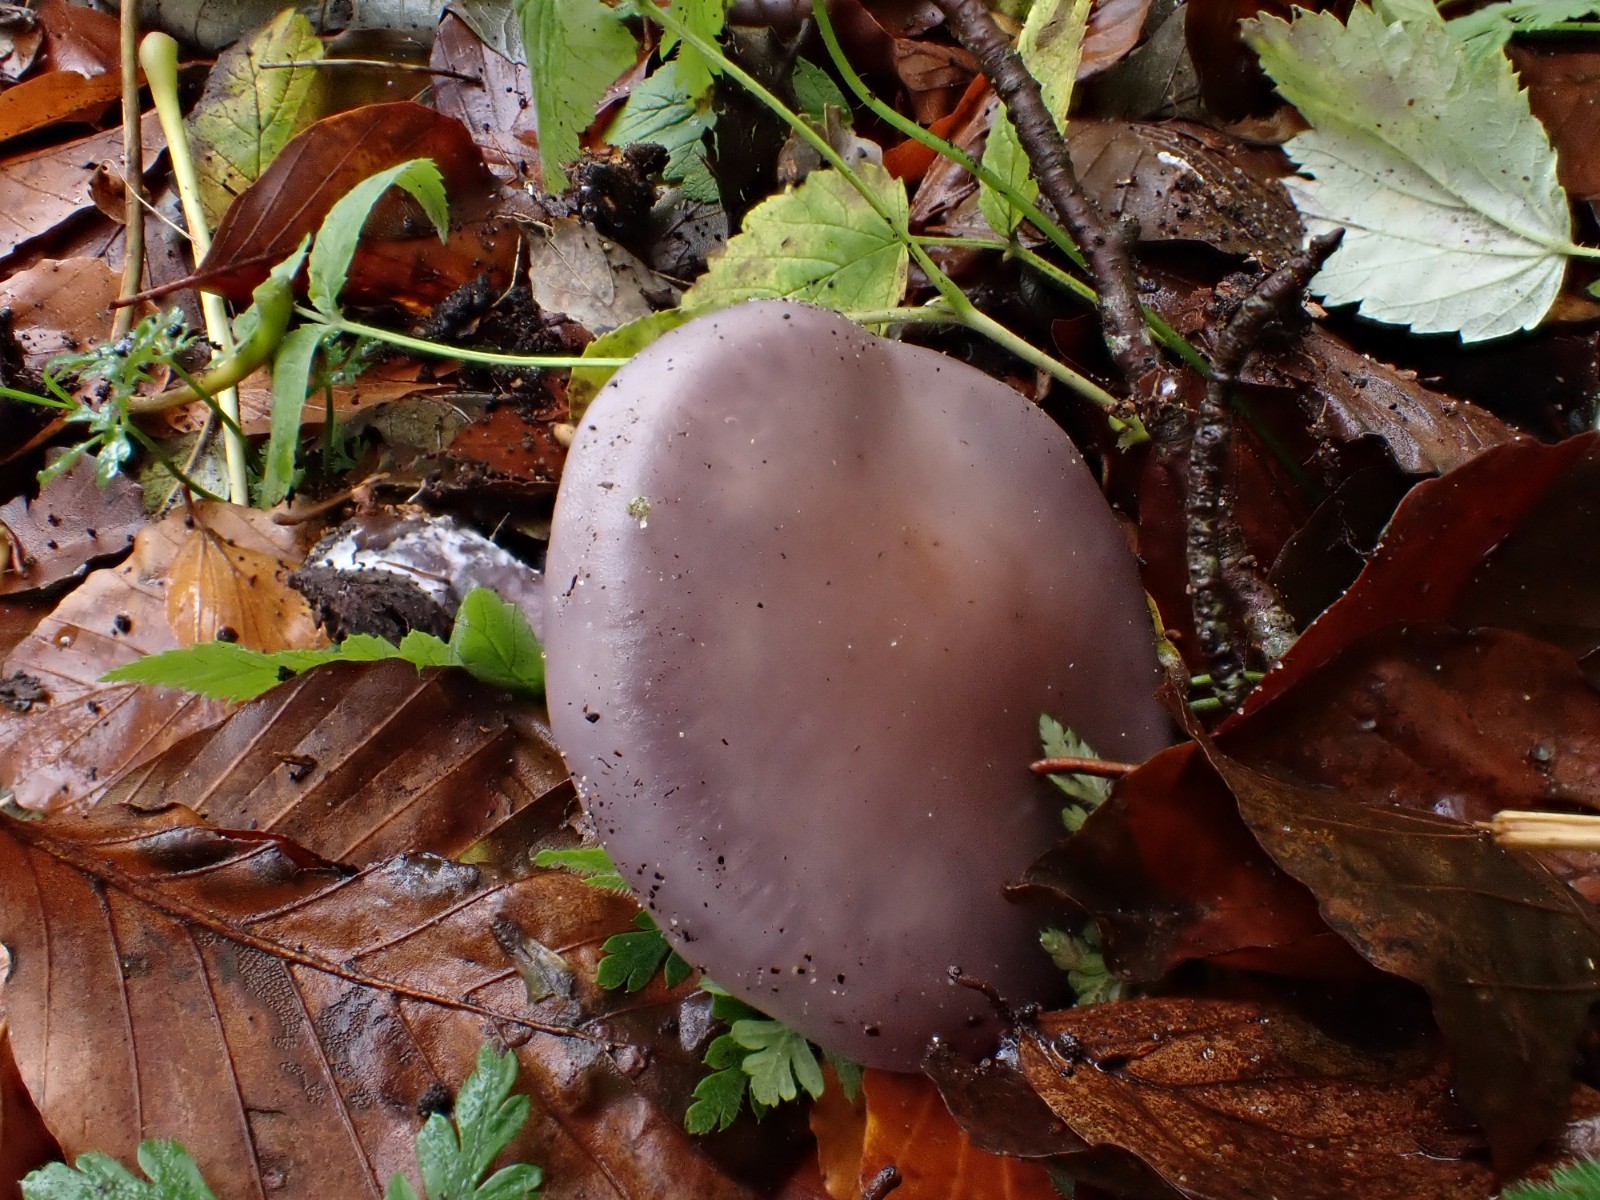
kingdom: Fungi
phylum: Basidiomycota
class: Agaricomycetes
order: Agaricales
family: Tricholomataceae
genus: Lepista
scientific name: Lepista lilacea
